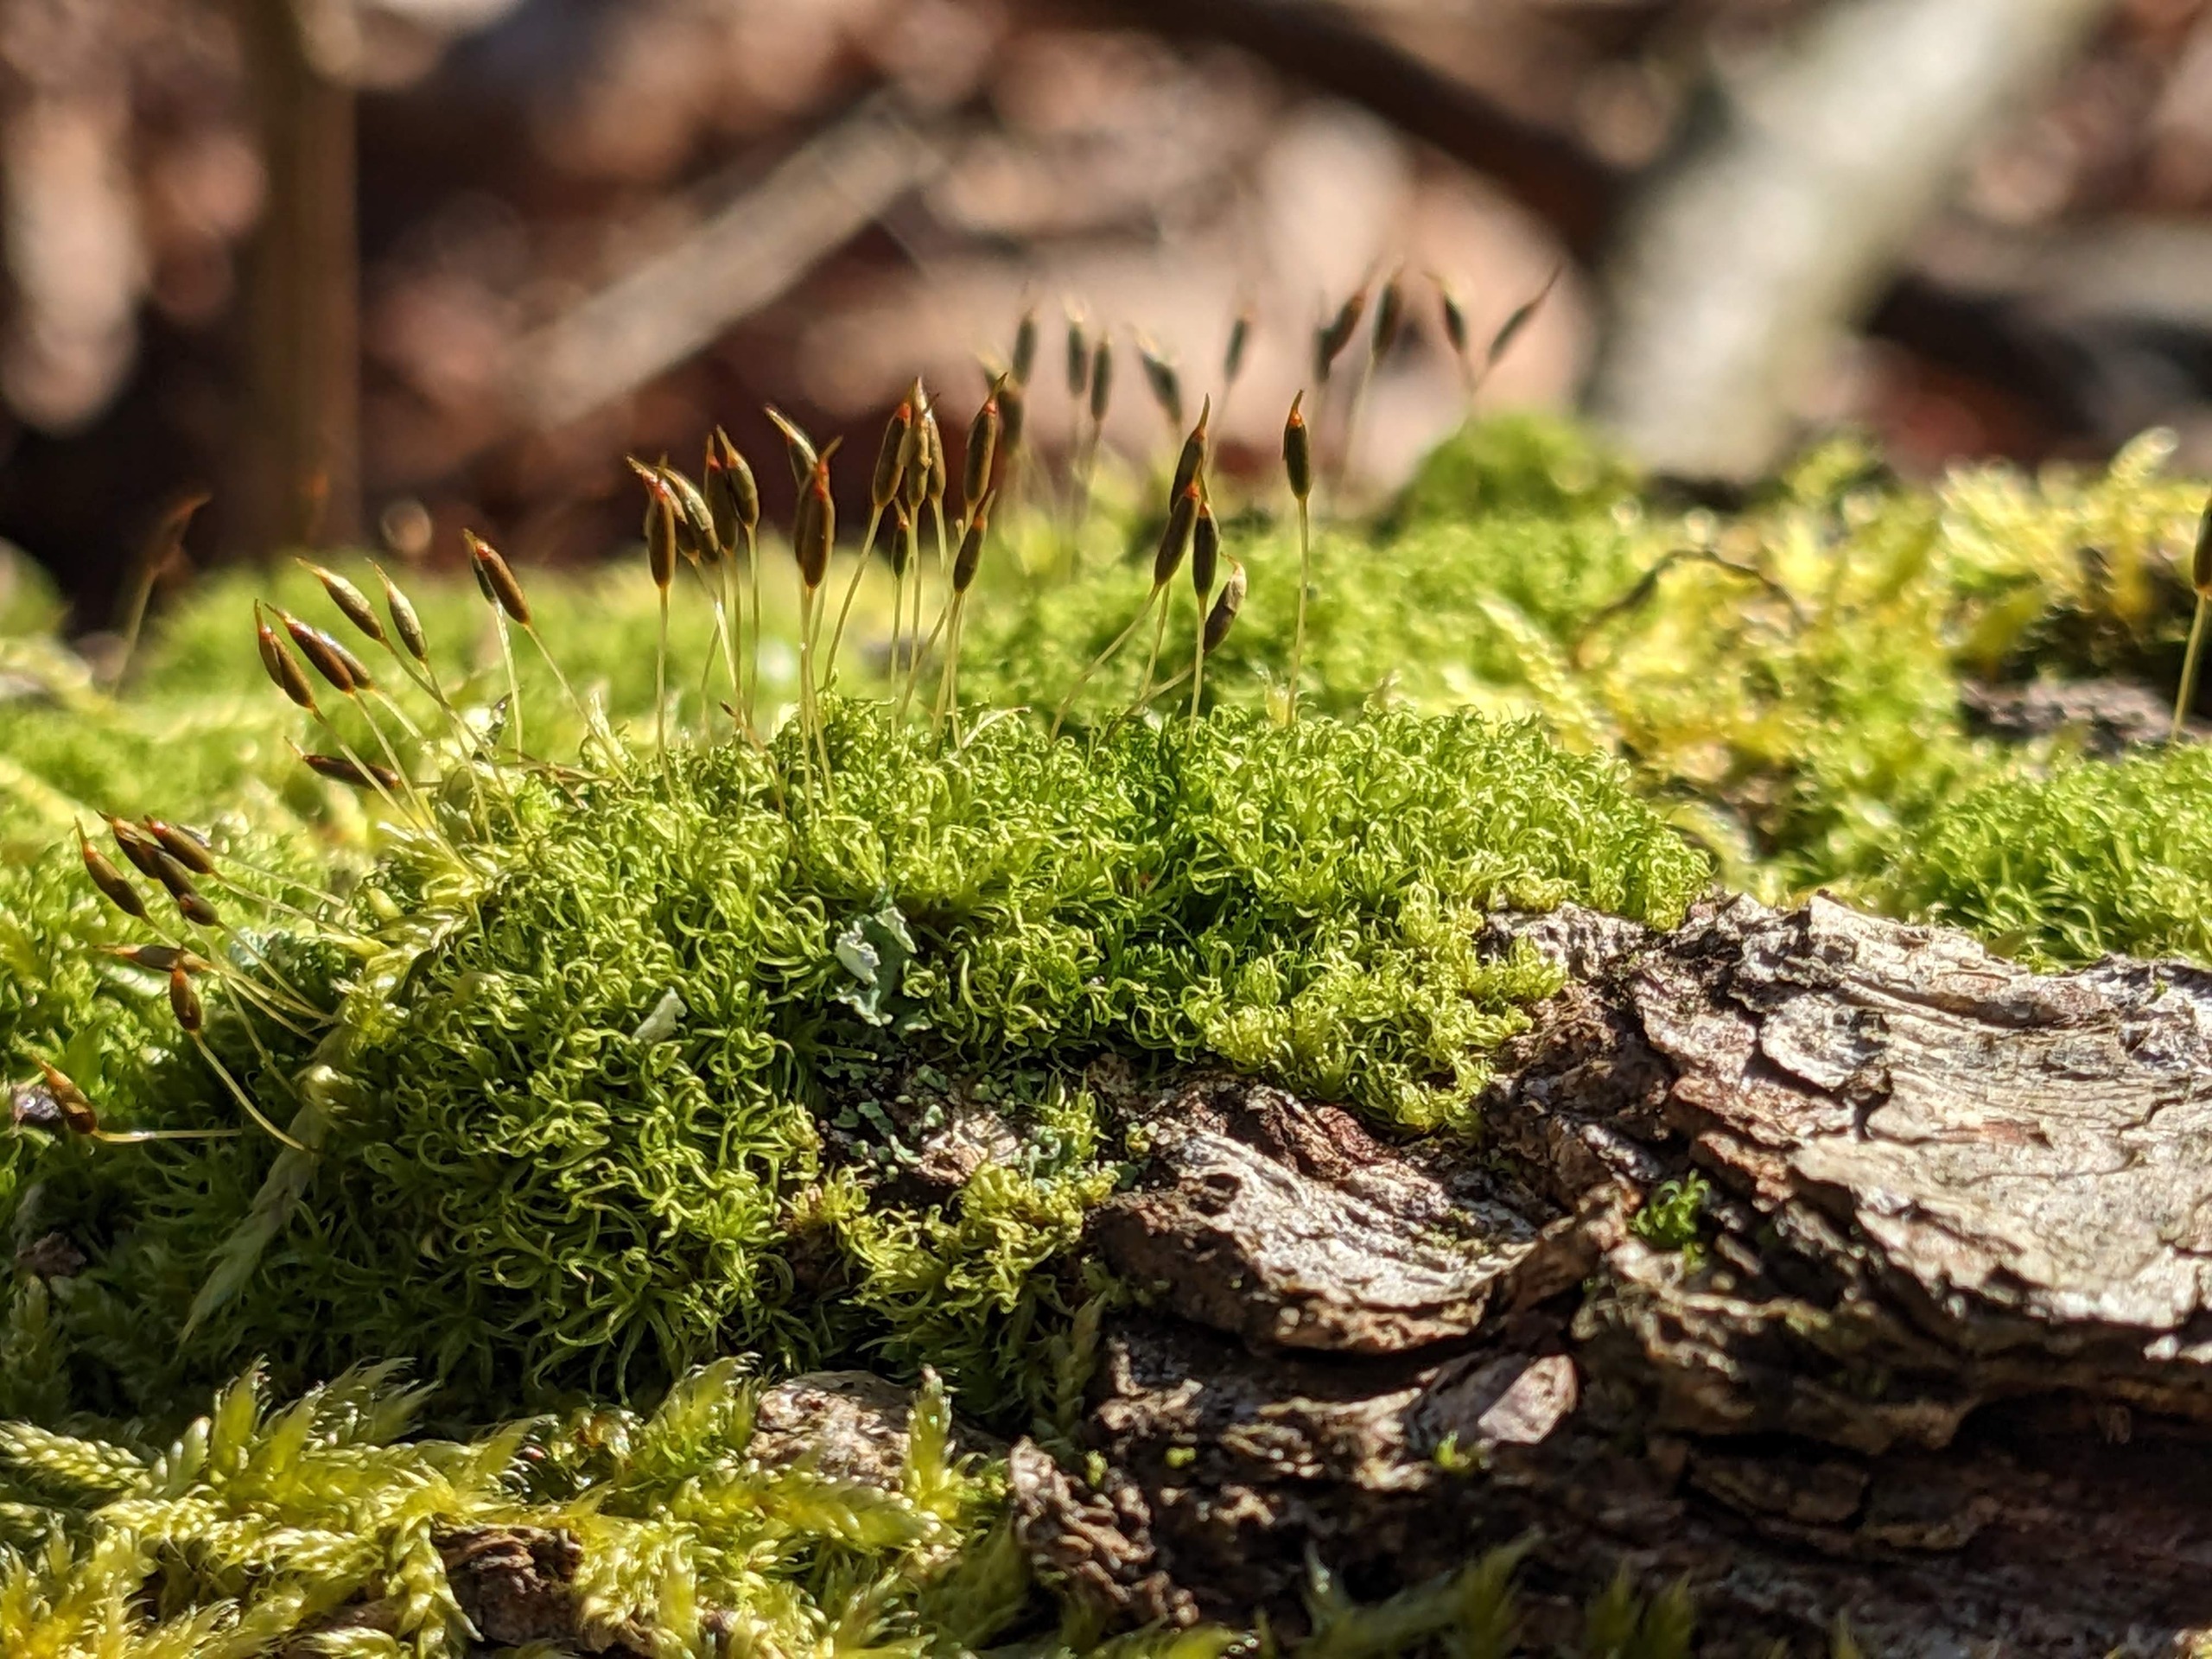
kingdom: Plantae
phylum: Bryophyta
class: Bryopsida
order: Dicranales
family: Rhabdoweisiaceae
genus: Dicranoweisia
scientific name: Dicranoweisia cirrata
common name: Almindelig krøltuemos
